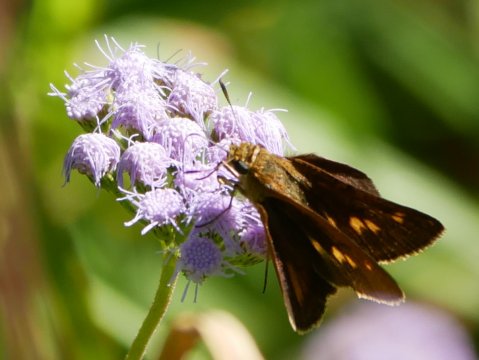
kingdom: Animalia
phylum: Arthropoda
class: Insecta
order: Lepidoptera
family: Hesperiidae
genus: Euphyes
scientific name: Euphyes dion
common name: Dion Skipper
